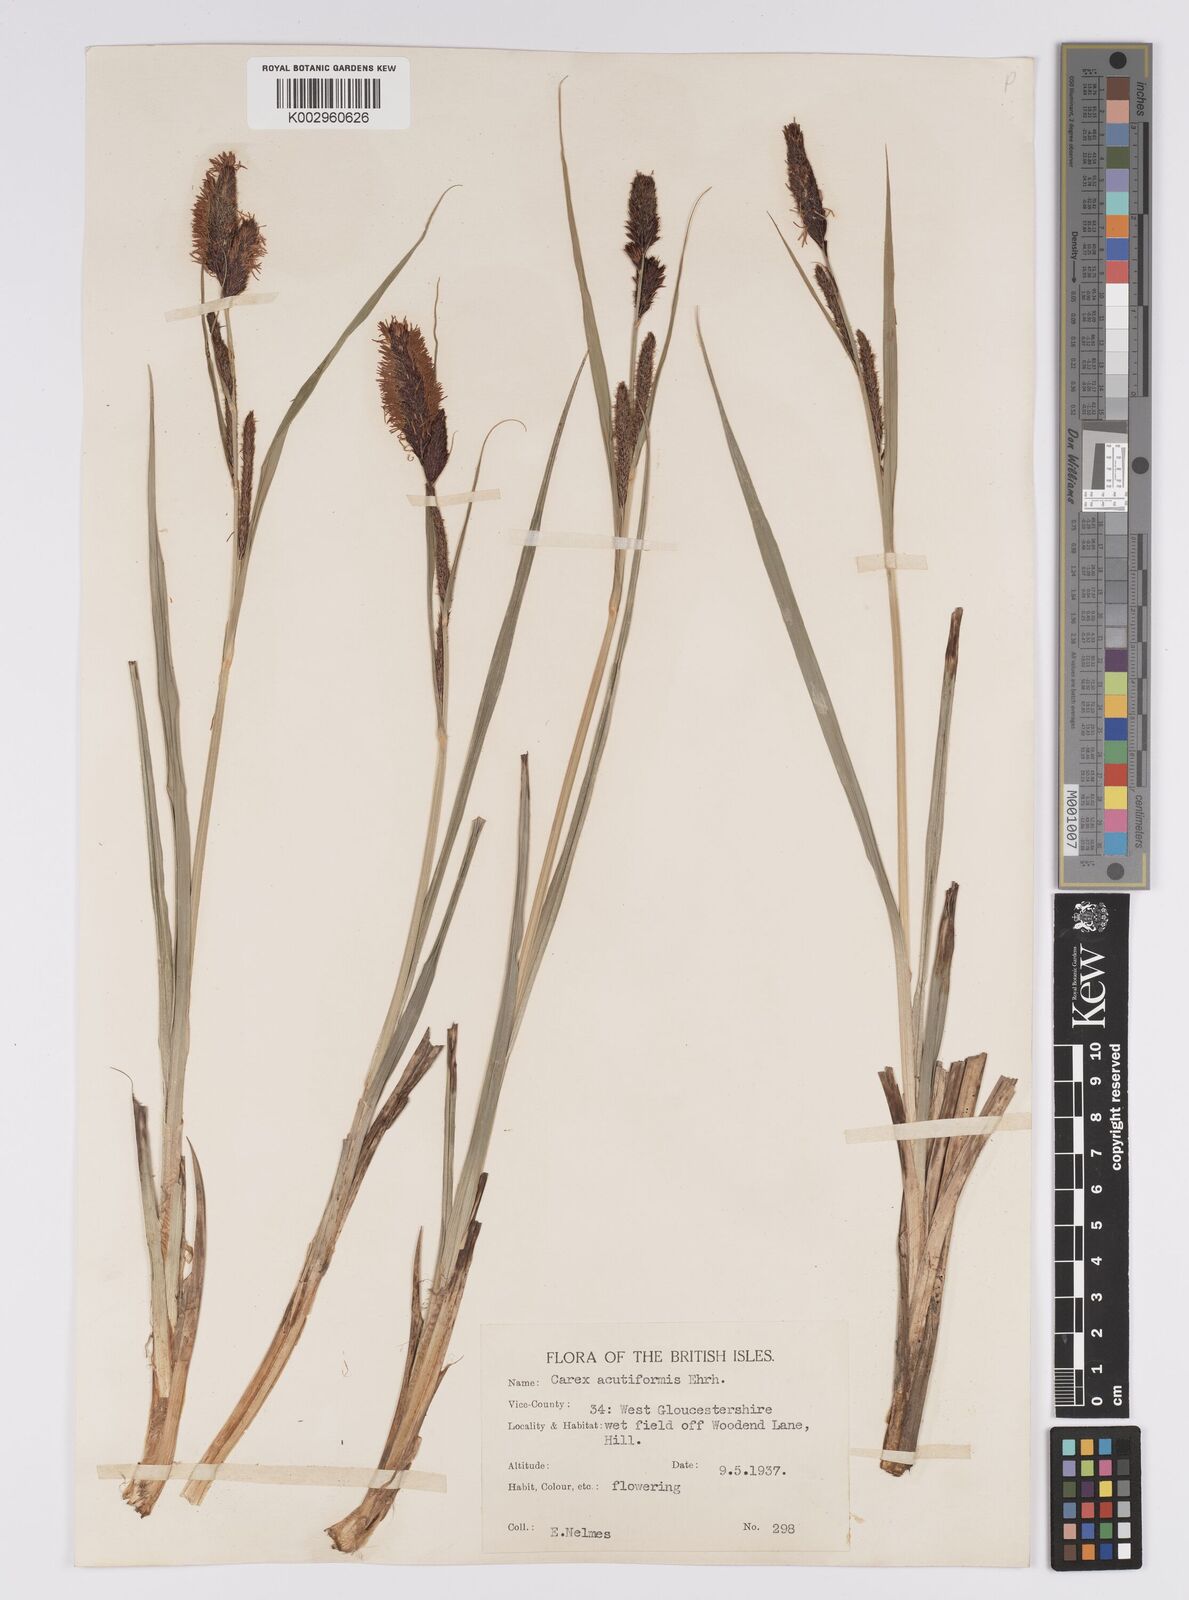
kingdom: Plantae
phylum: Tracheophyta
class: Liliopsida
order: Poales
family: Cyperaceae
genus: Carex
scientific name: Carex acutiformis
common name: Lesser pond-sedge
